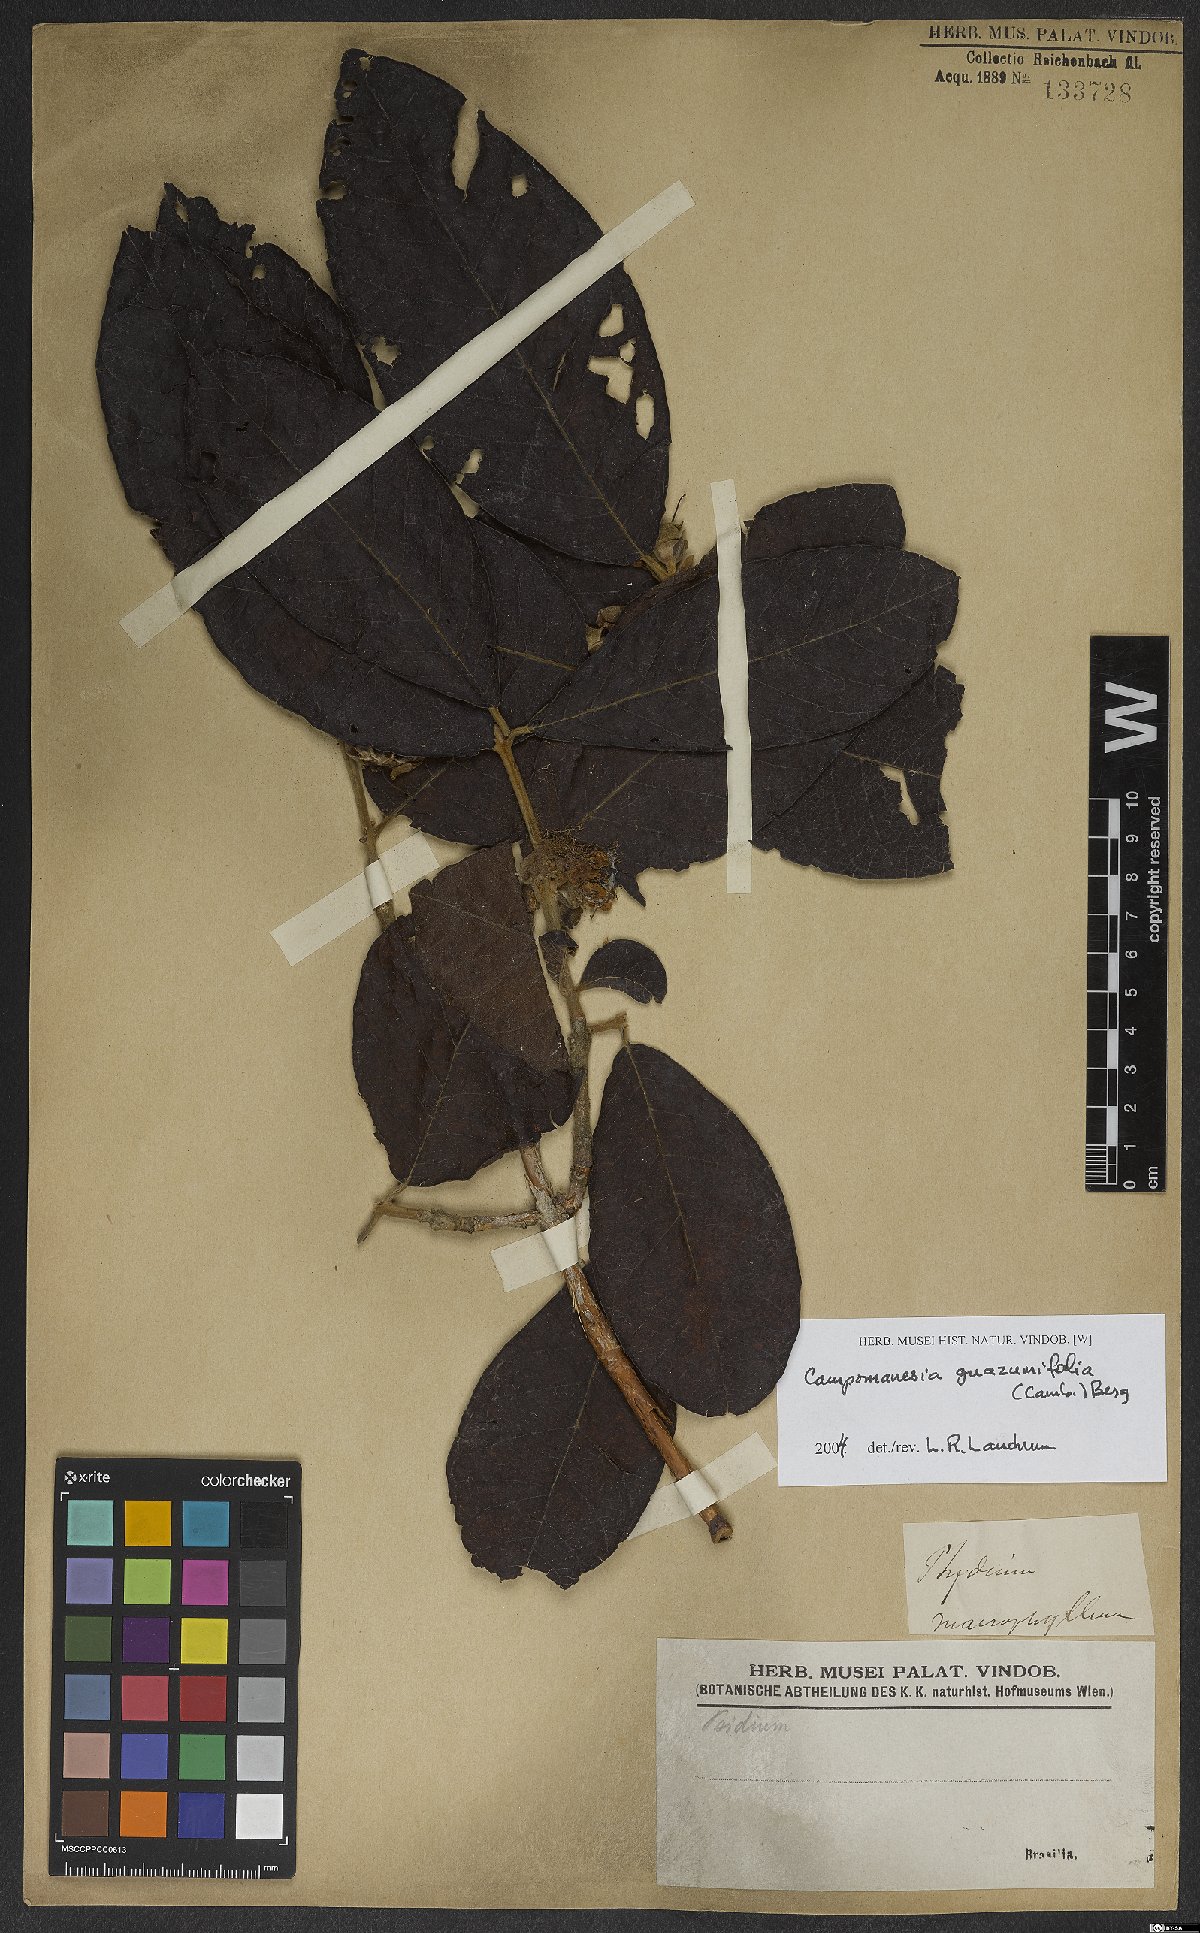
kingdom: Plantae
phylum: Tracheophyta
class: Magnoliopsida
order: Myrtales
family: Myrtaceae
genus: Campomanesia
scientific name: Campomanesia guazumifolia
